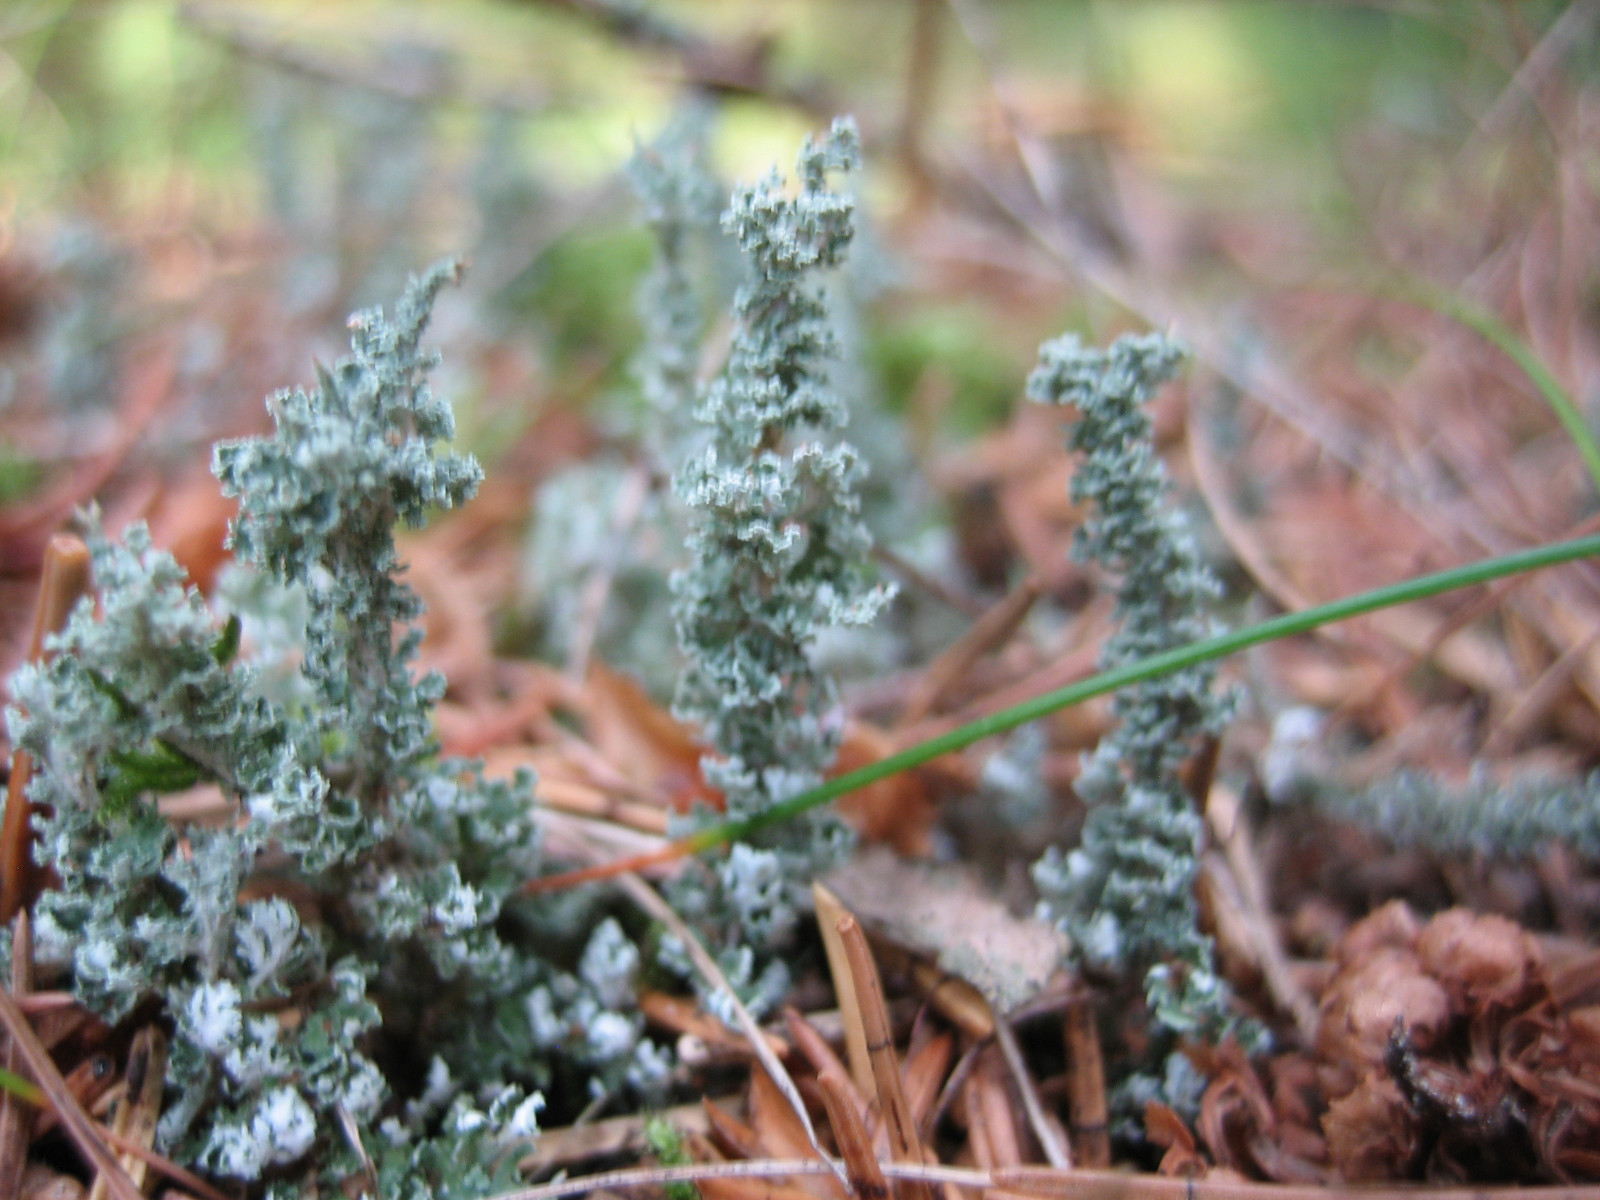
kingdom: Fungi
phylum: Ascomycota
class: Lecanoromycetes
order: Lecanorales
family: Cladoniaceae
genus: Cladonia
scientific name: Cladonia squamosa
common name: skælklædt bægerlav
